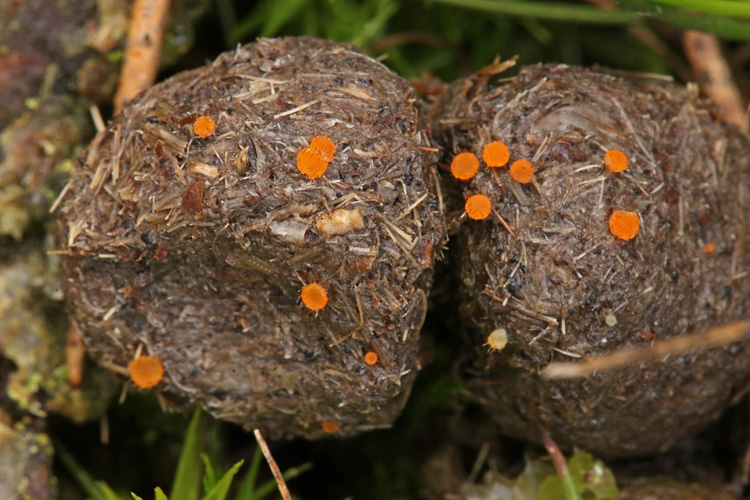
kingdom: Fungi
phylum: Ascomycota
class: Pezizomycetes
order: Pezizales
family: Pyronemataceae
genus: Cheilymenia
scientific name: Cheilymenia
